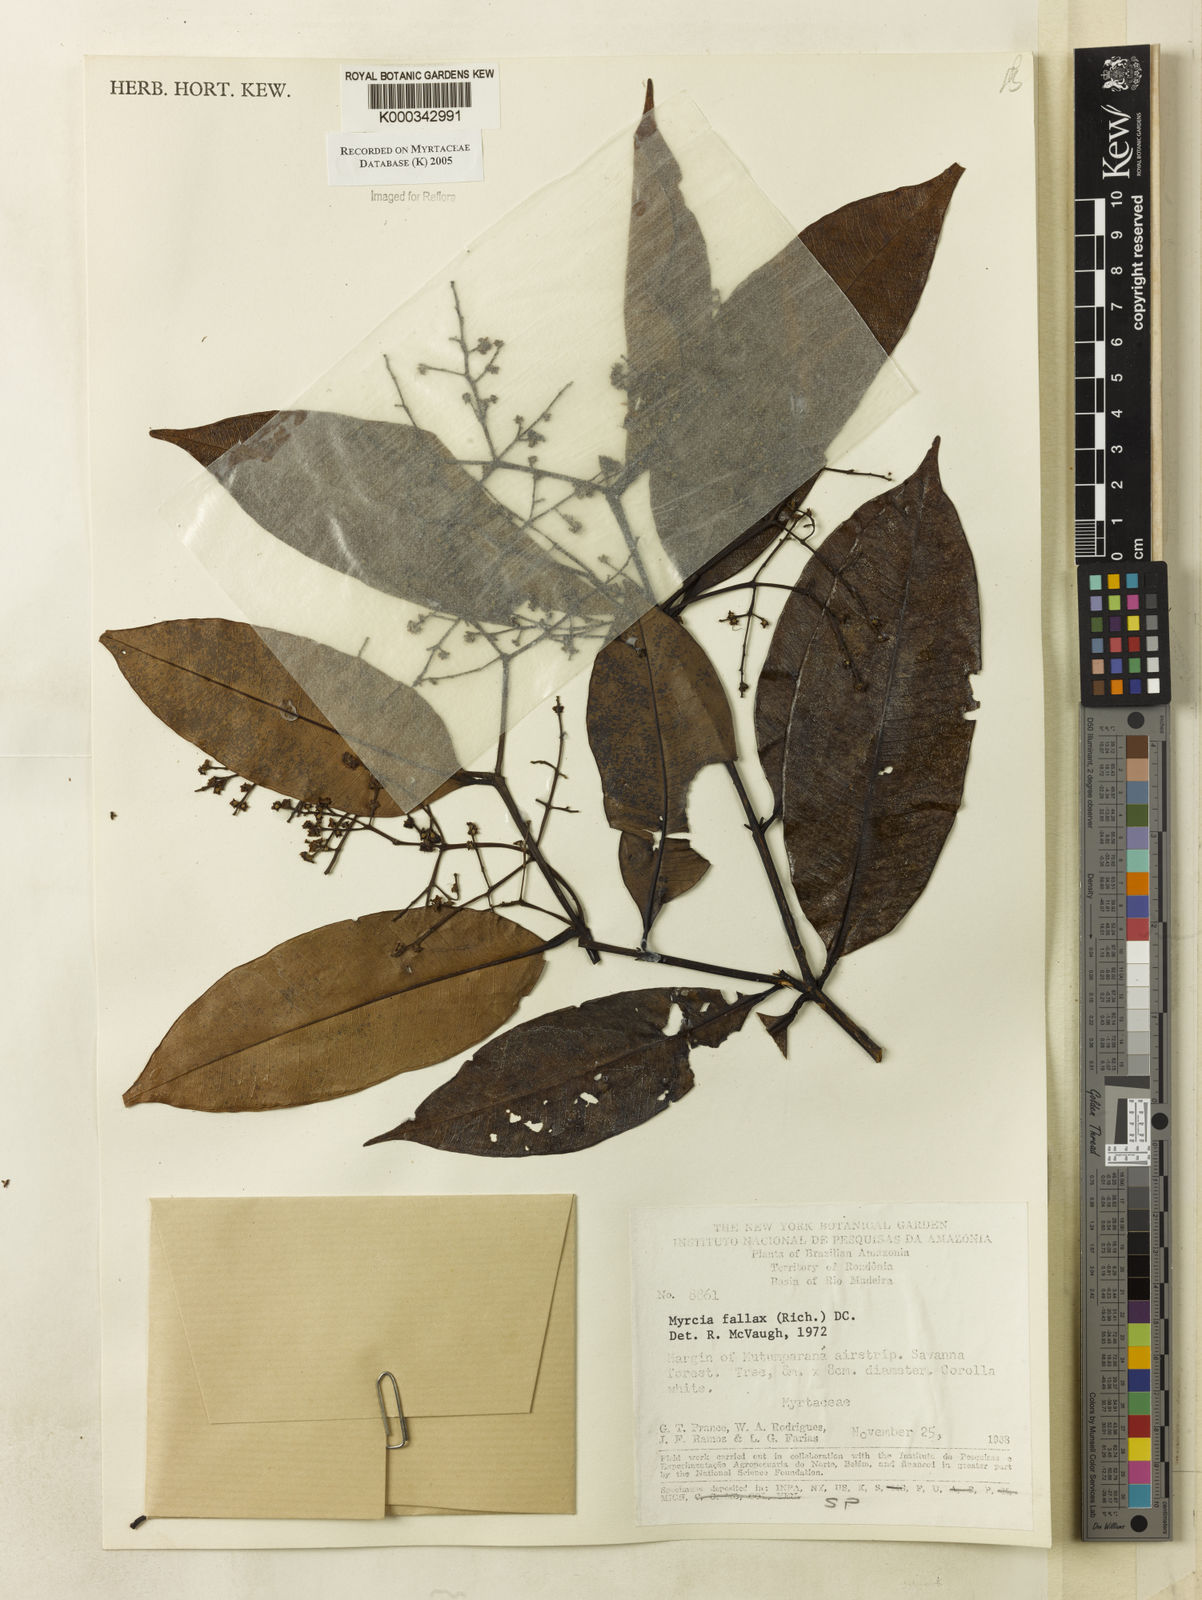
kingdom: Plantae
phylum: Tracheophyta
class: Magnoliopsida
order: Myrtales
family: Myrtaceae
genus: Myrcia
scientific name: Myrcia splendens
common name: Surinam cherry
